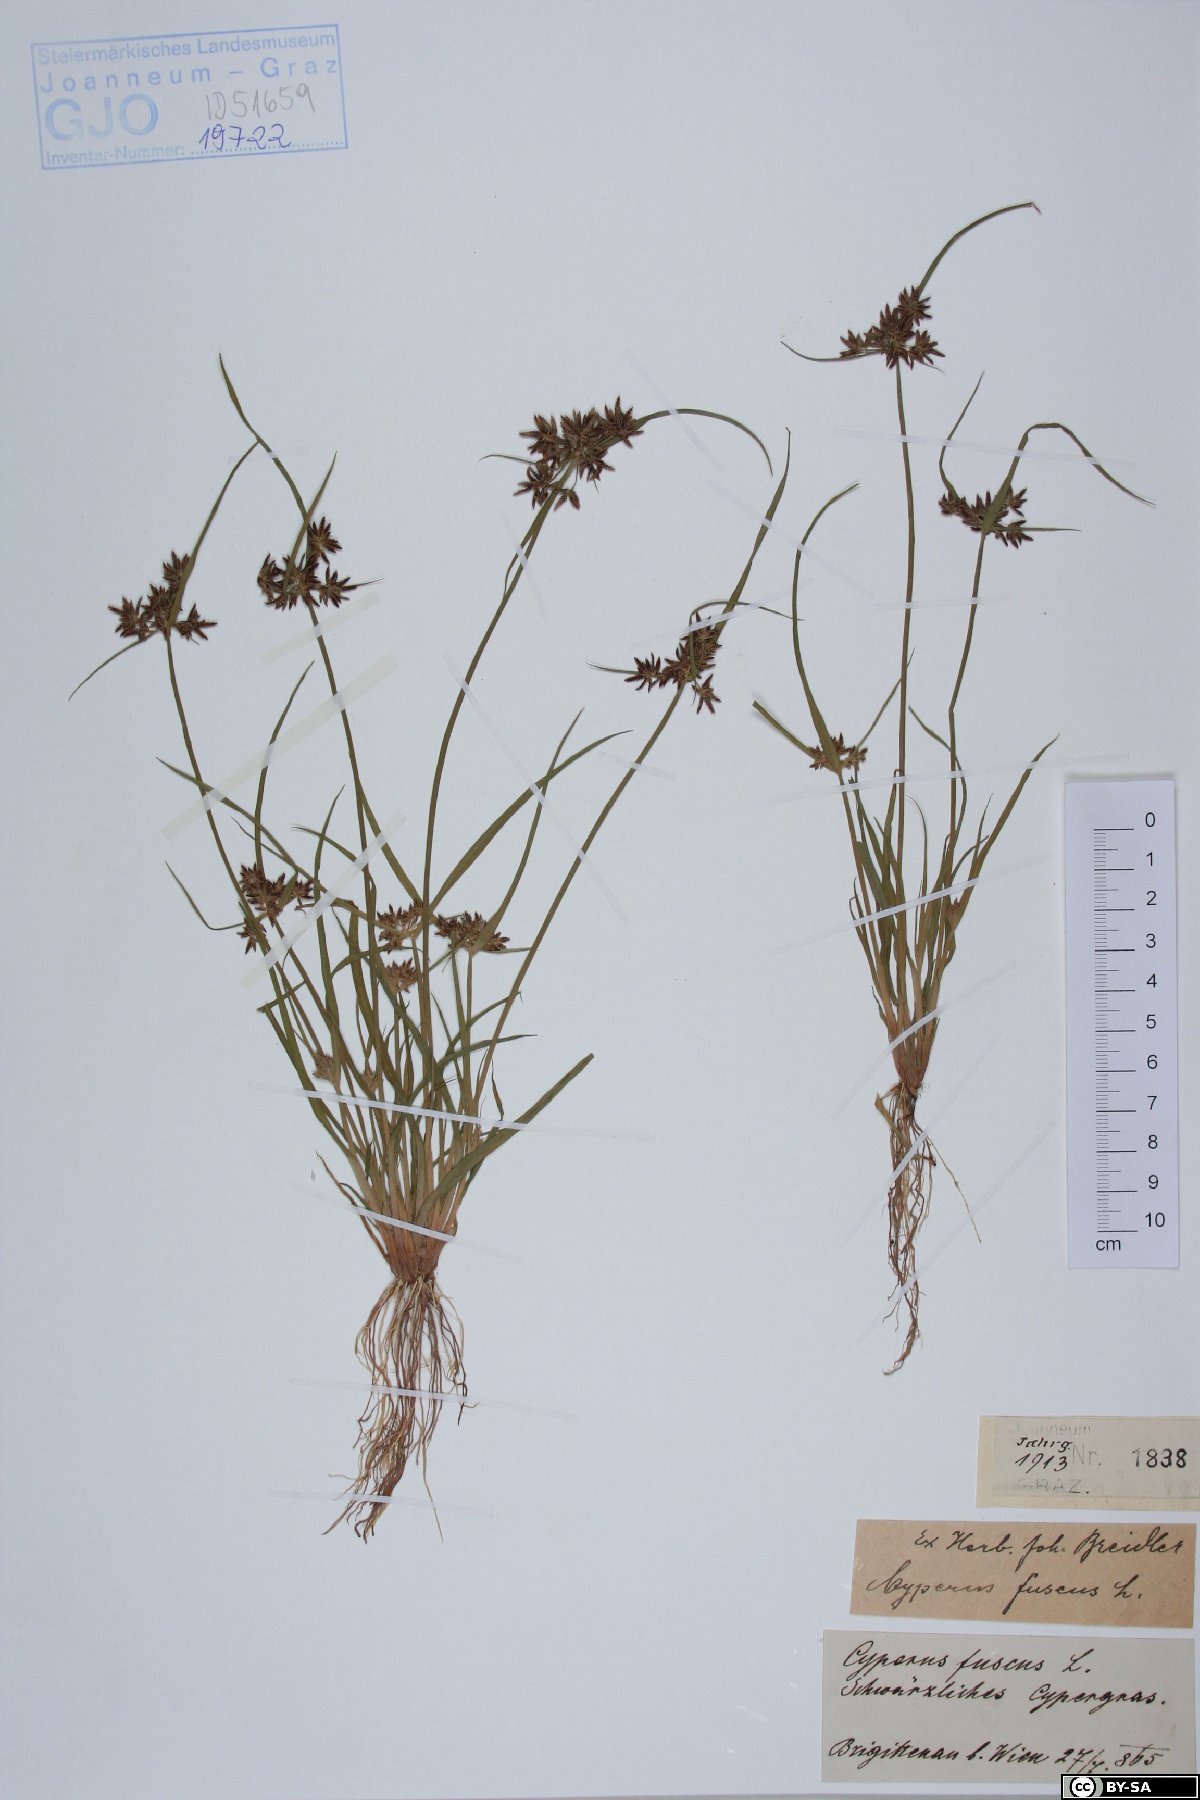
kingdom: Plantae
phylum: Tracheophyta
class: Liliopsida
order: Poales
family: Cyperaceae
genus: Cyperus
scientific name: Cyperus fuscus
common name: Brown galingale
